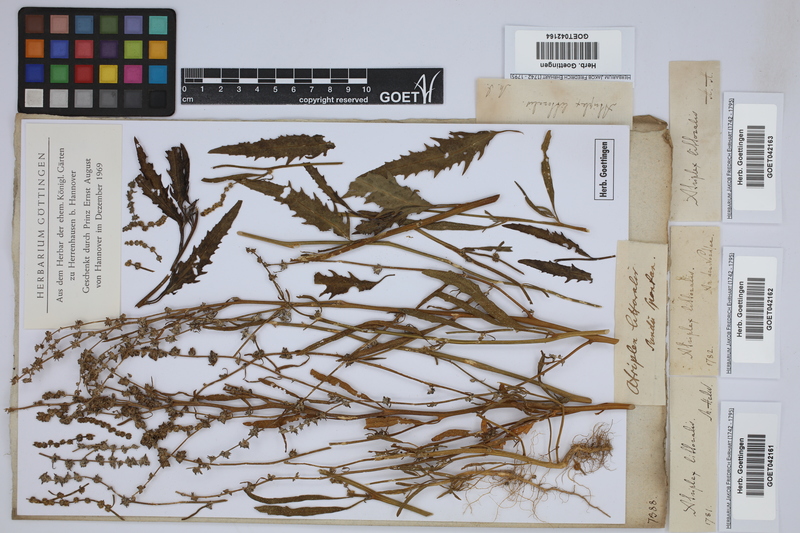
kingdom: Plantae
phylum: Tracheophyta
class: Magnoliopsida
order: Caryophyllales
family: Amaranthaceae
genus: Atriplex
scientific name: Atriplex littoralis
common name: Grass-leaved orache
